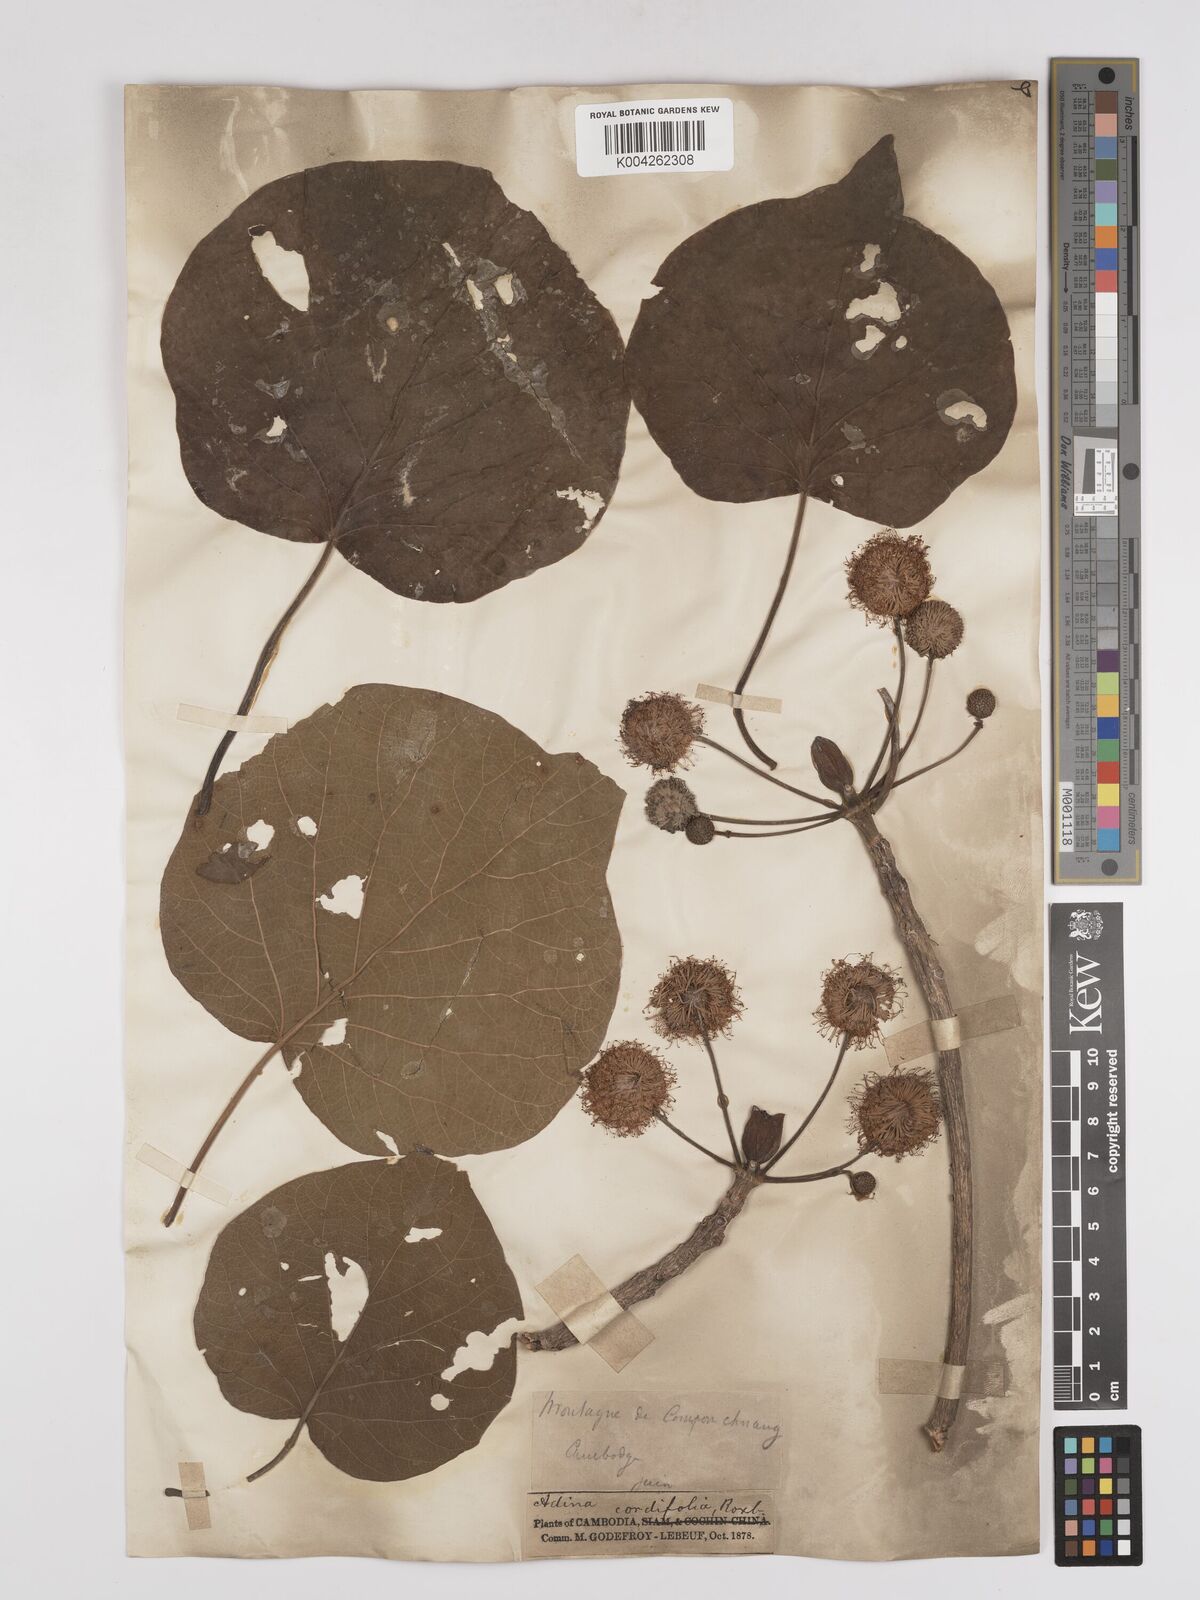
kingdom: Plantae
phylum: Tracheophyta
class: Magnoliopsida
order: Gentianales
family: Rubiaceae
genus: Adina
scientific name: Adina cordifolia
